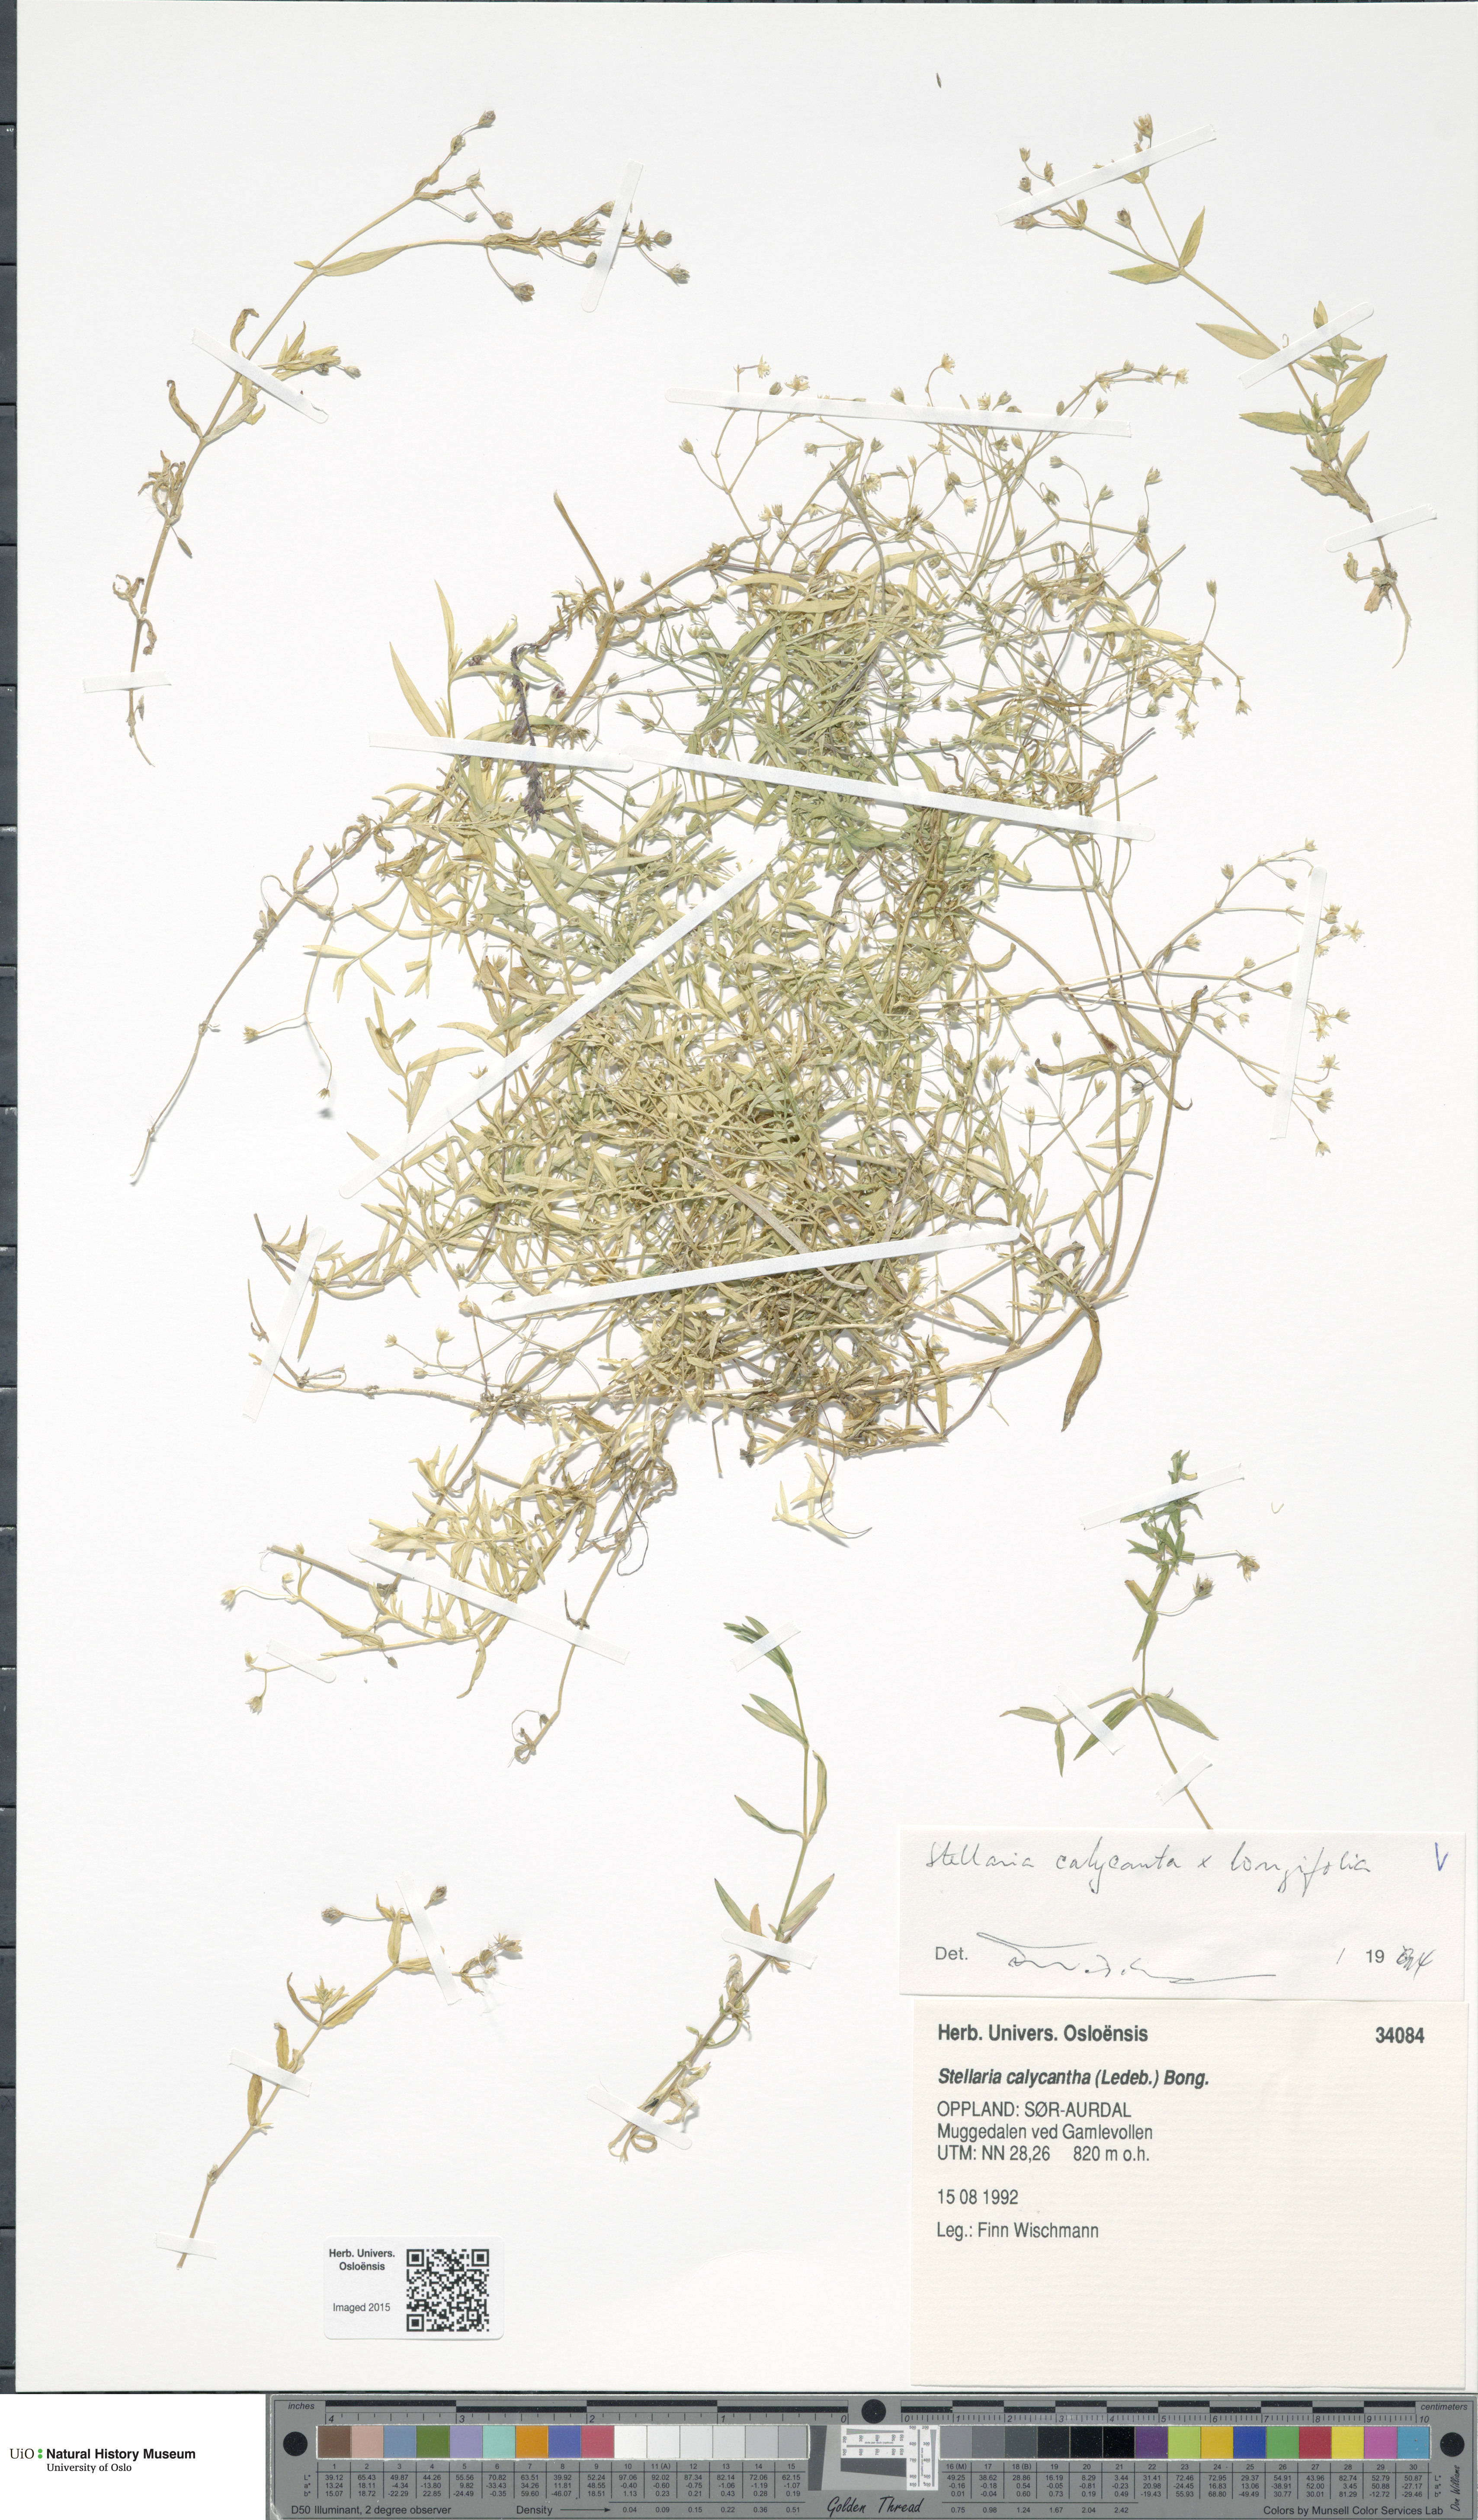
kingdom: Plantae
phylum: Tracheophyta
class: Magnoliopsida
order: Caryophyllales
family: Caryophyllaceae
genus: Stellaria
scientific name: Stellaria
